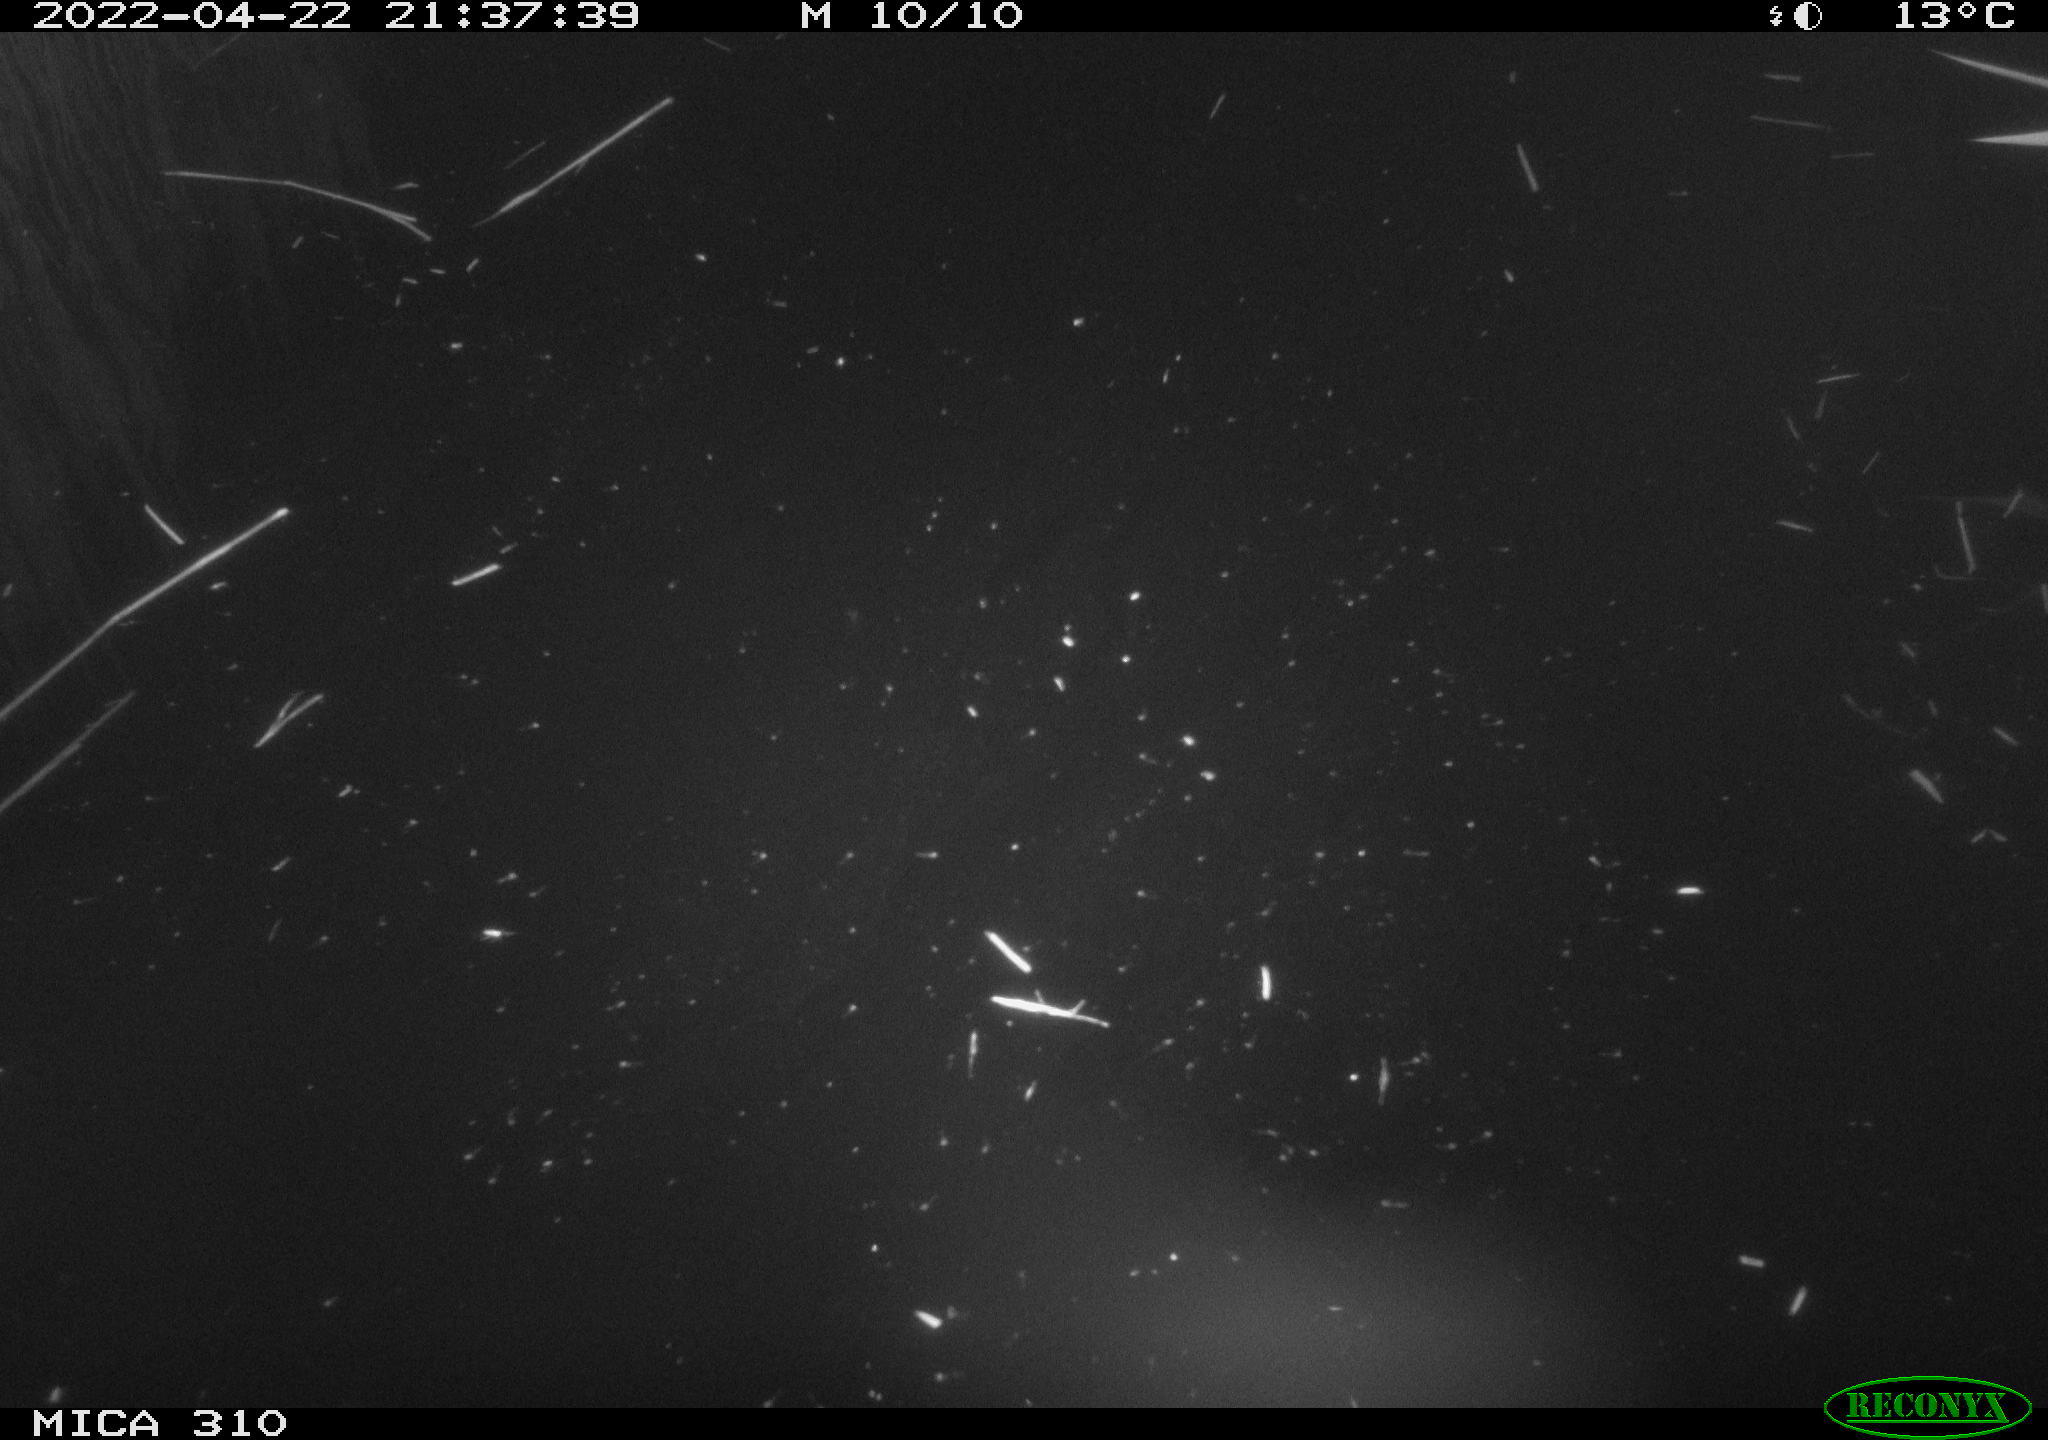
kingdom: Animalia
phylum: Chordata
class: Aves
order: Anseriformes
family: Anatidae
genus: Anas
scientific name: Anas platyrhynchos
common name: Mallard
